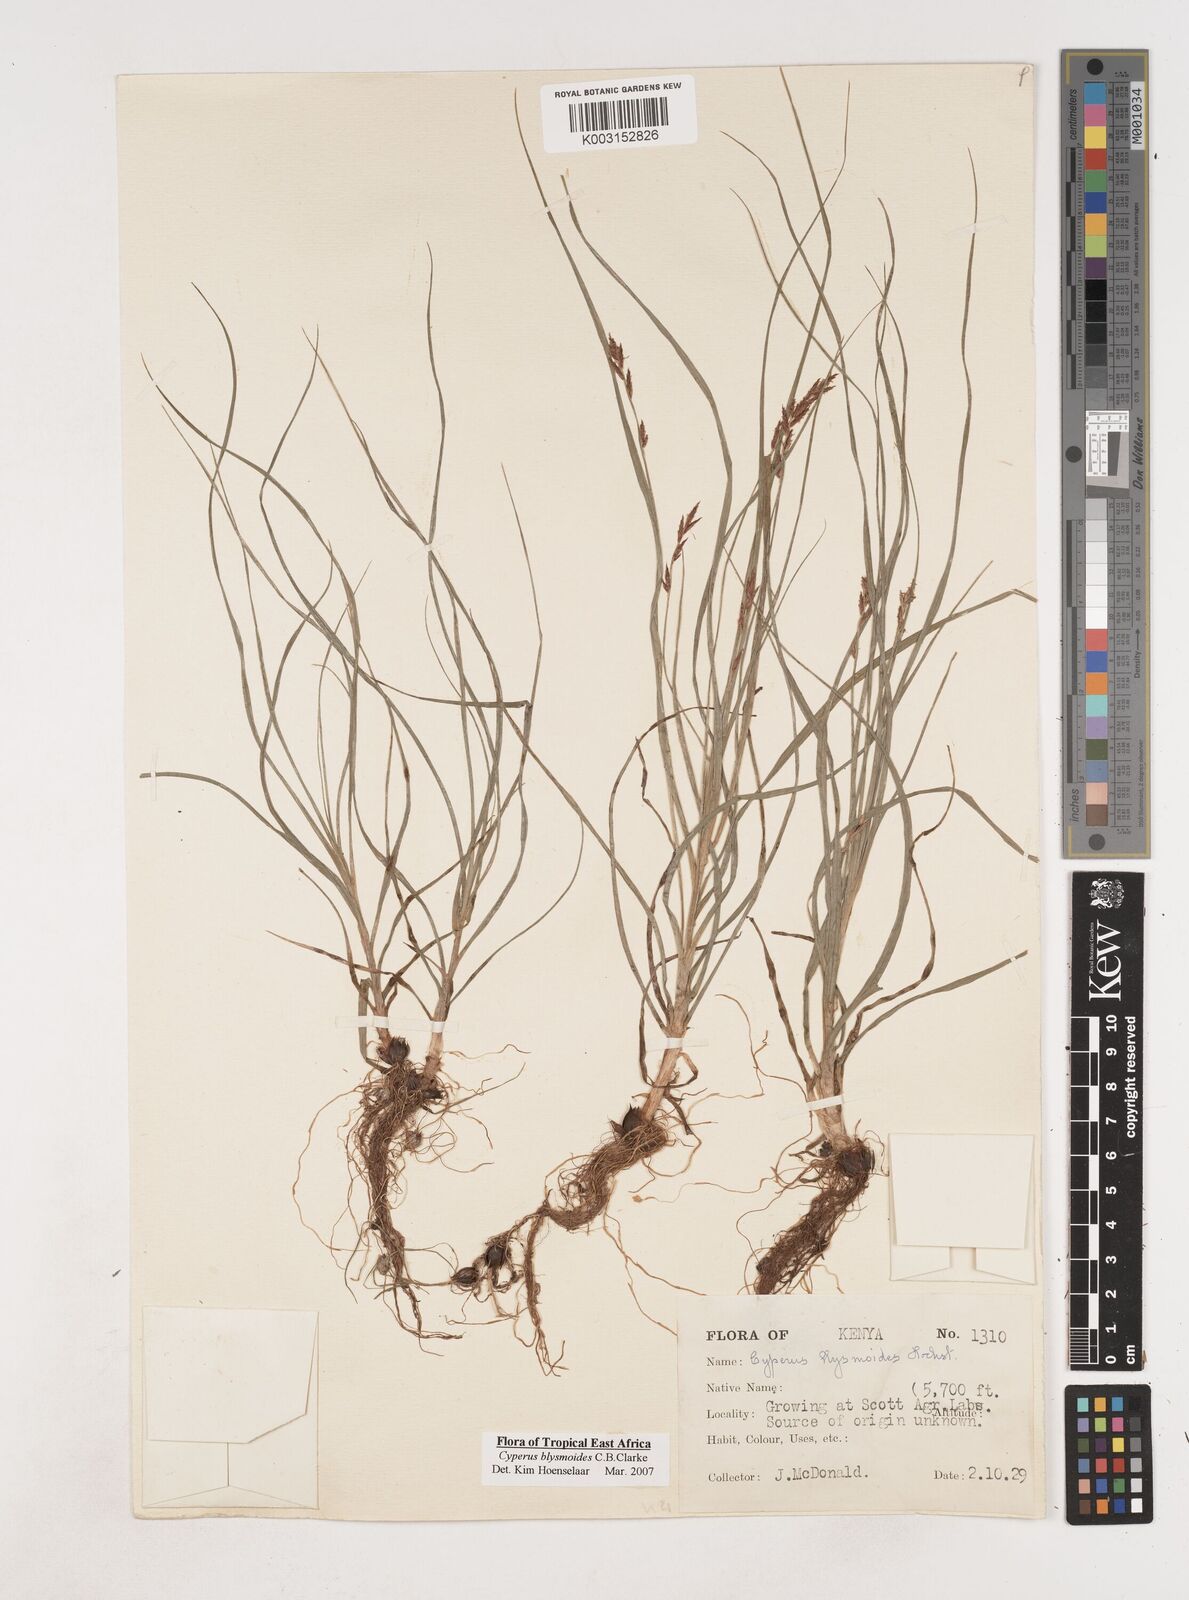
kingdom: Plantae
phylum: Tracheophyta
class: Liliopsida
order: Poales
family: Cyperaceae
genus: Cyperus
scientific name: Cyperus blysmoides
